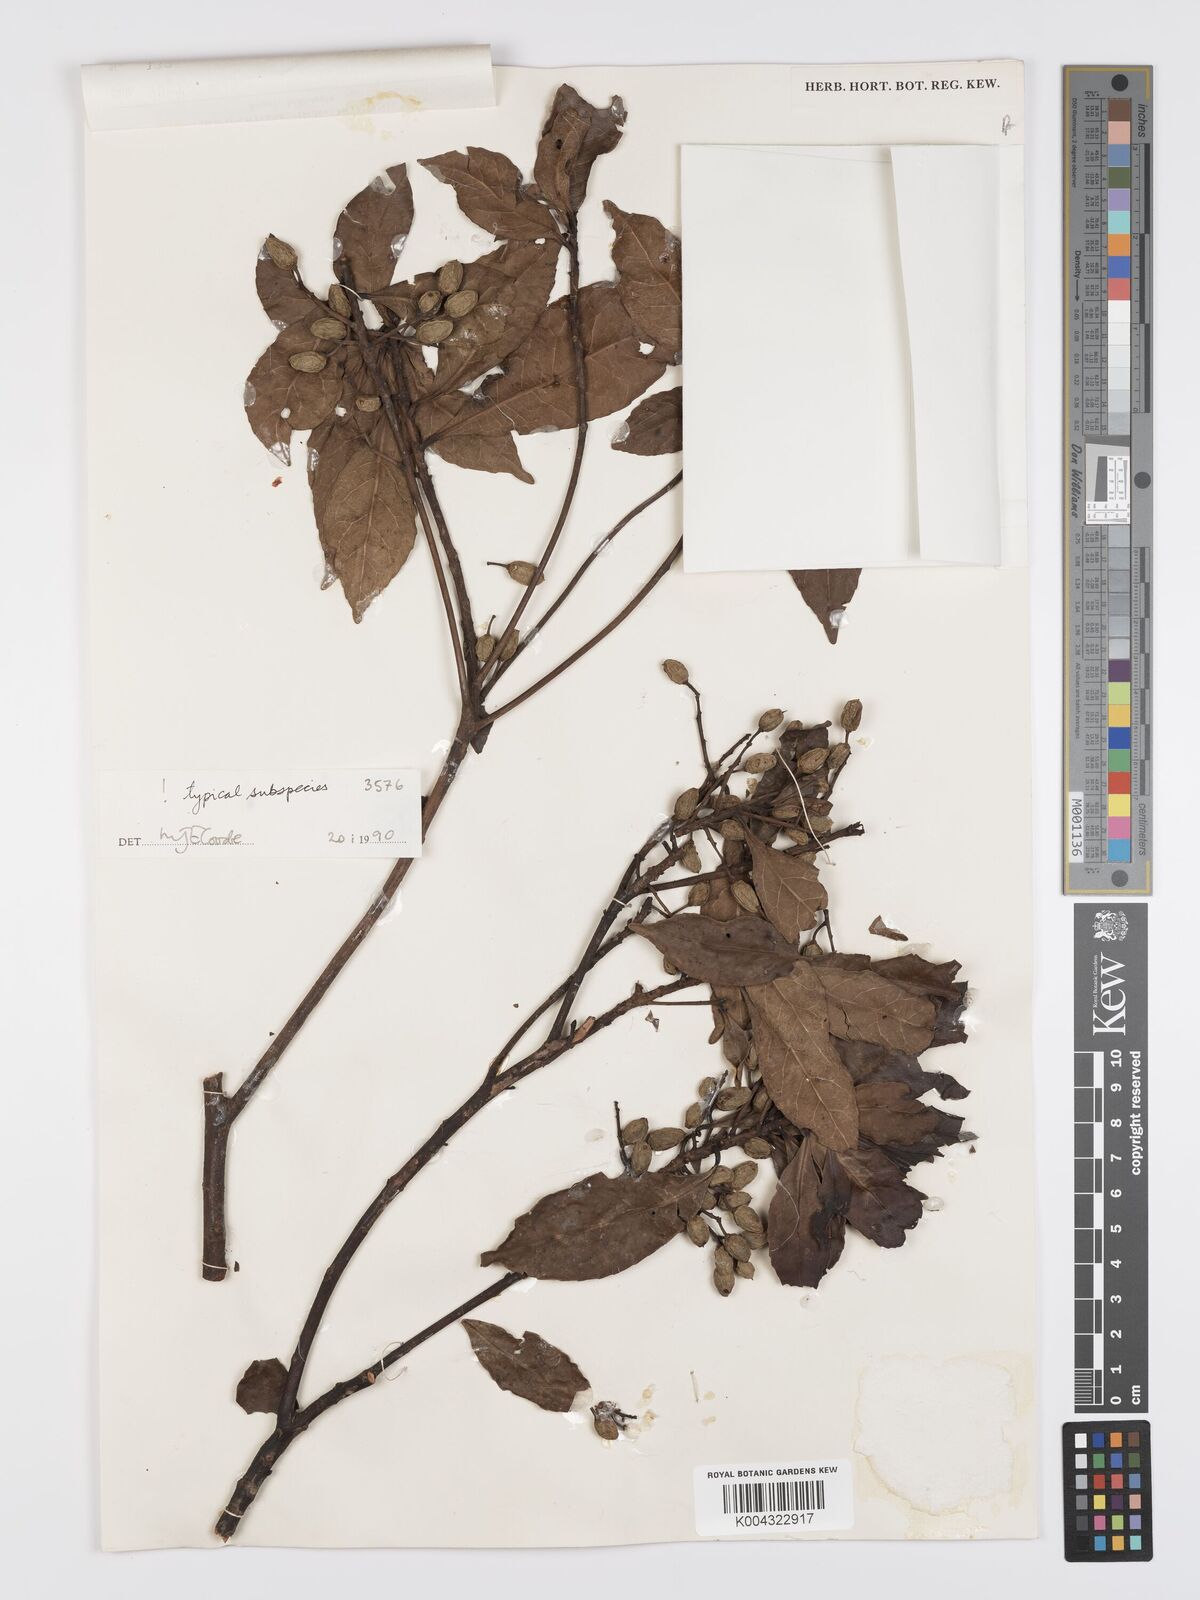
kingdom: Plantae
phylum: Tracheophyta
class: Magnoliopsida
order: Oxalidales
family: Elaeocarpaceae
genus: Elaeocarpus
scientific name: Elaeocarpus acronodia
